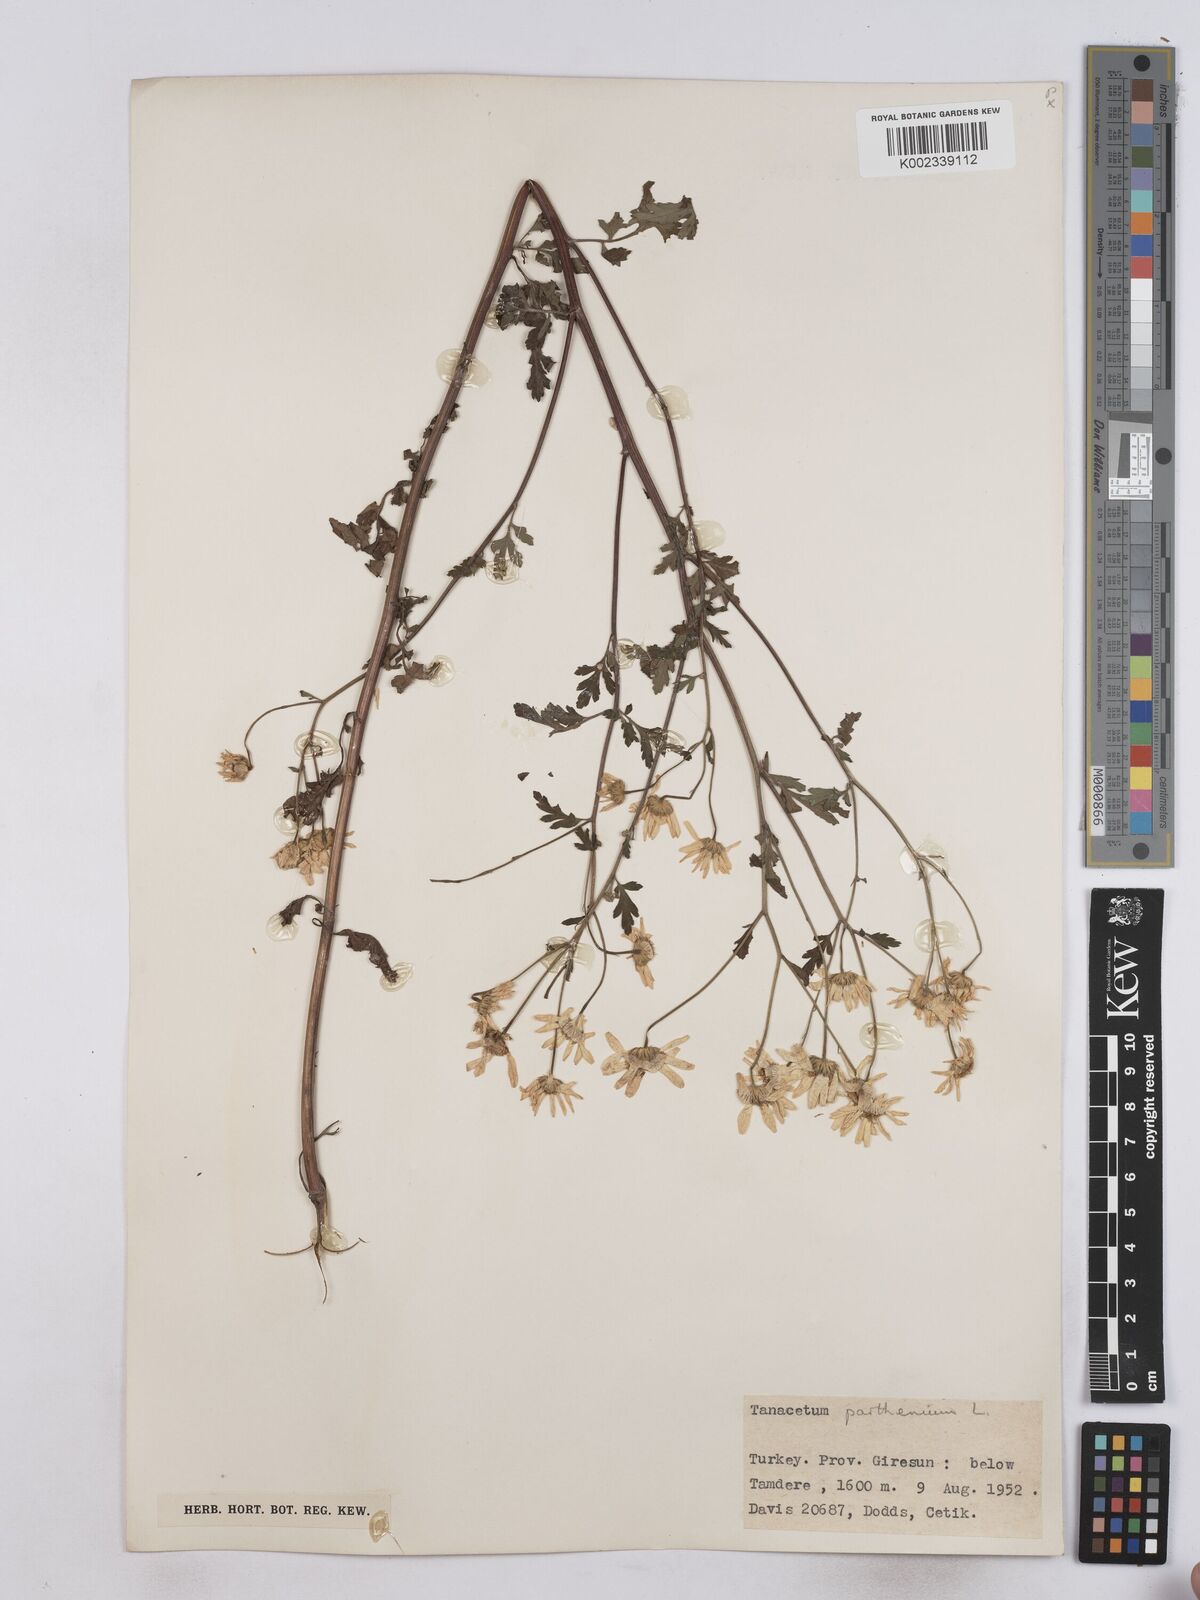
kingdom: Plantae
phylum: Tracheophyta
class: Magnoliopsida
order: Asterales
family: Asteraceae
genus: Tanacetum
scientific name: Tanacetum parthenium
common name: Feverfew
